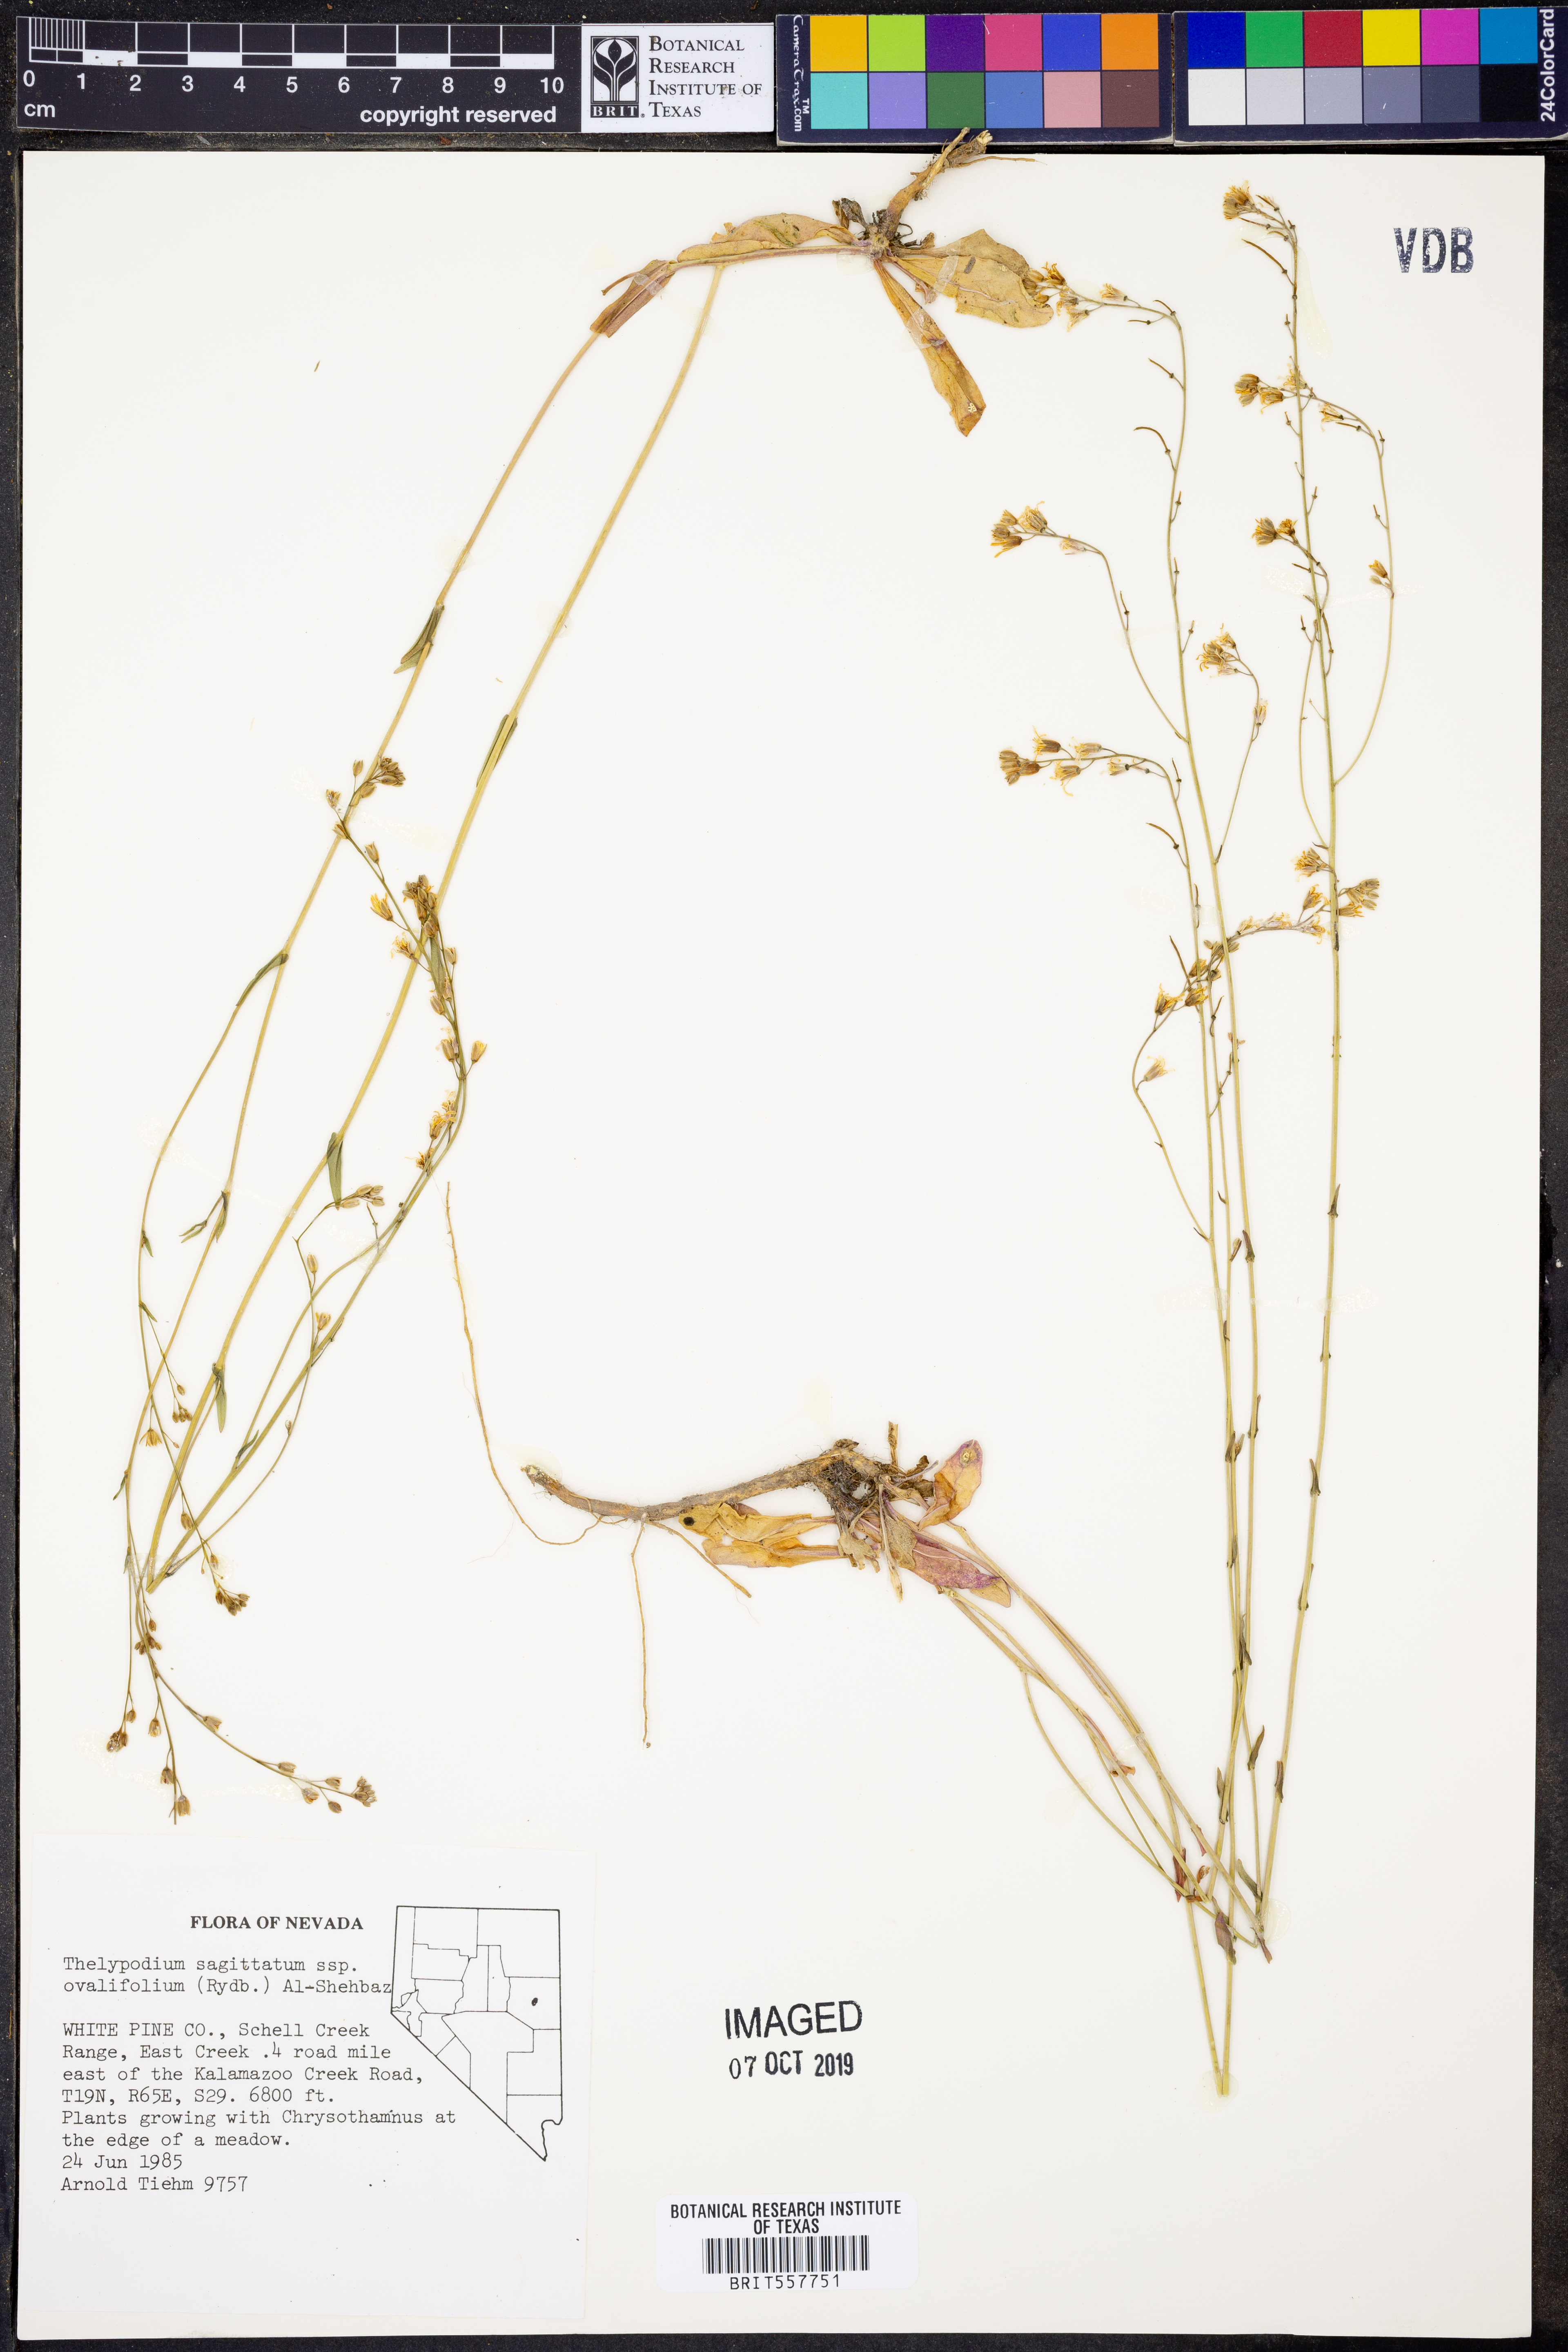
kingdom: Plantae
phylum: Tracheophyta
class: Magnoliopsida
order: Brassicales
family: Brassicaceae
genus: Thelypodium
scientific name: Thelypodium sagittatum
